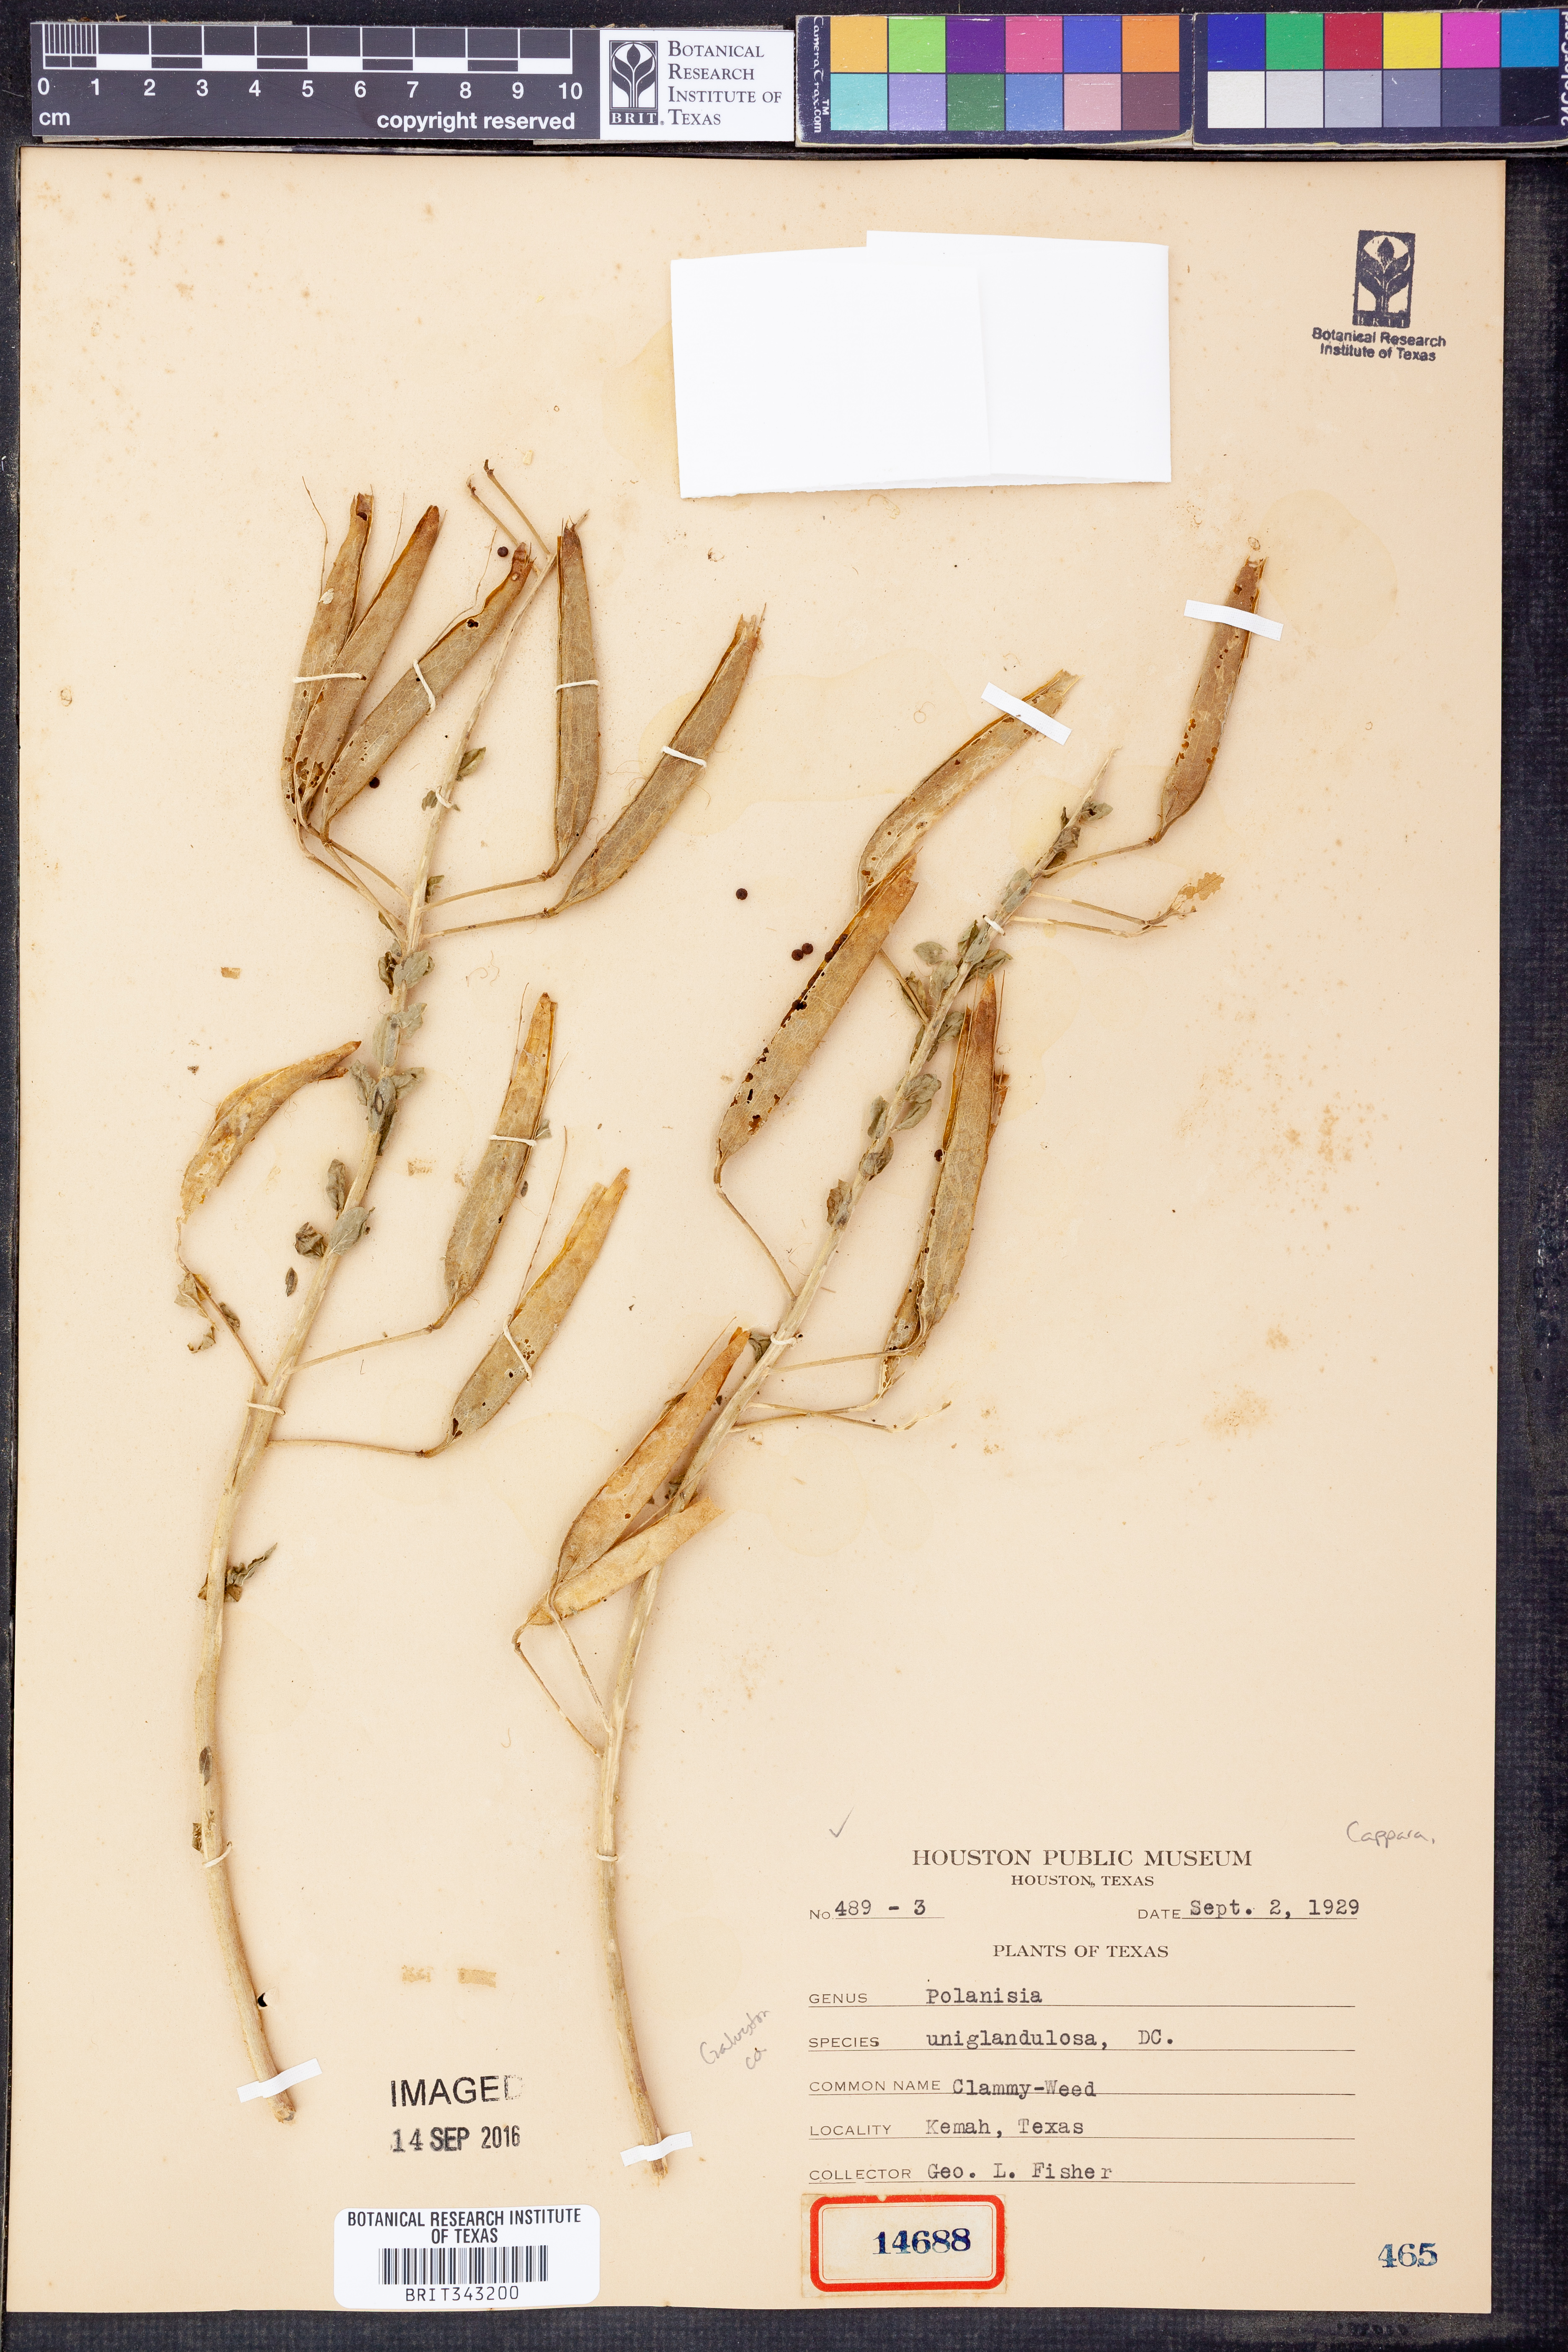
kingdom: Plantae
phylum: Tracheophyta
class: Magnoliopsida
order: Brassicales
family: Cleomaceae
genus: Polanisia
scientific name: Polanisia uniglandulosa
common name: Mexican clammyweed
